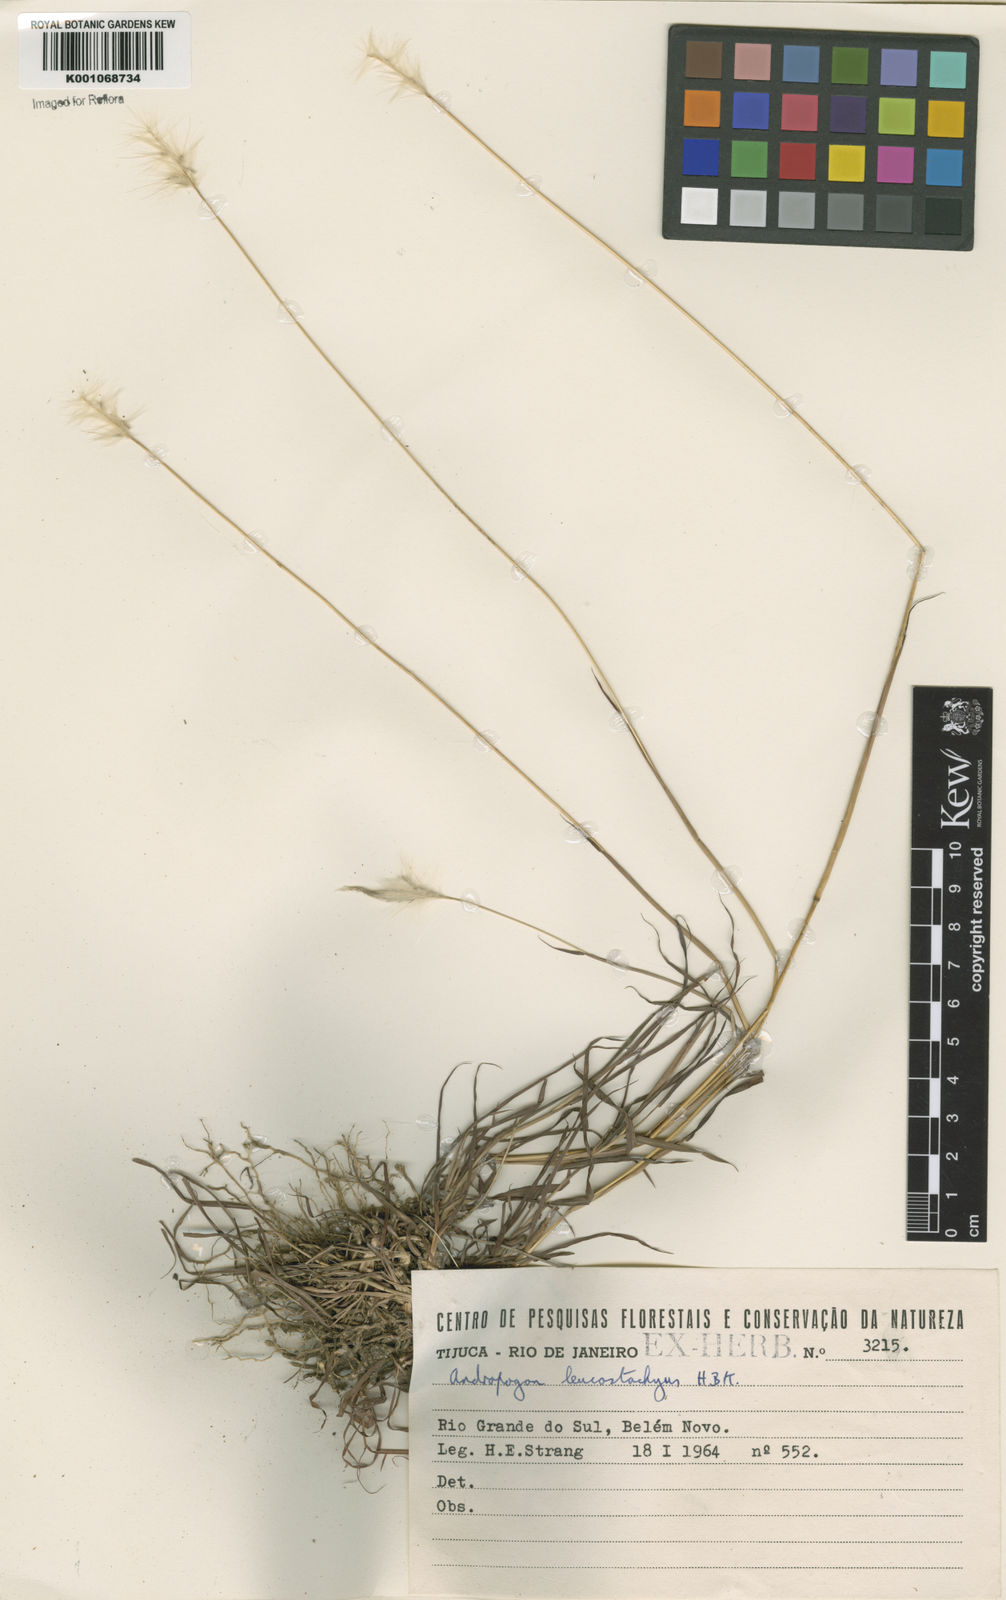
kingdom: Plantae
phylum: Tracheophyta
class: Liliopsida
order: Poales
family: Poaceae
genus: Bothriochloa
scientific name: Bothriochloa laguroides
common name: Silver bluestem
